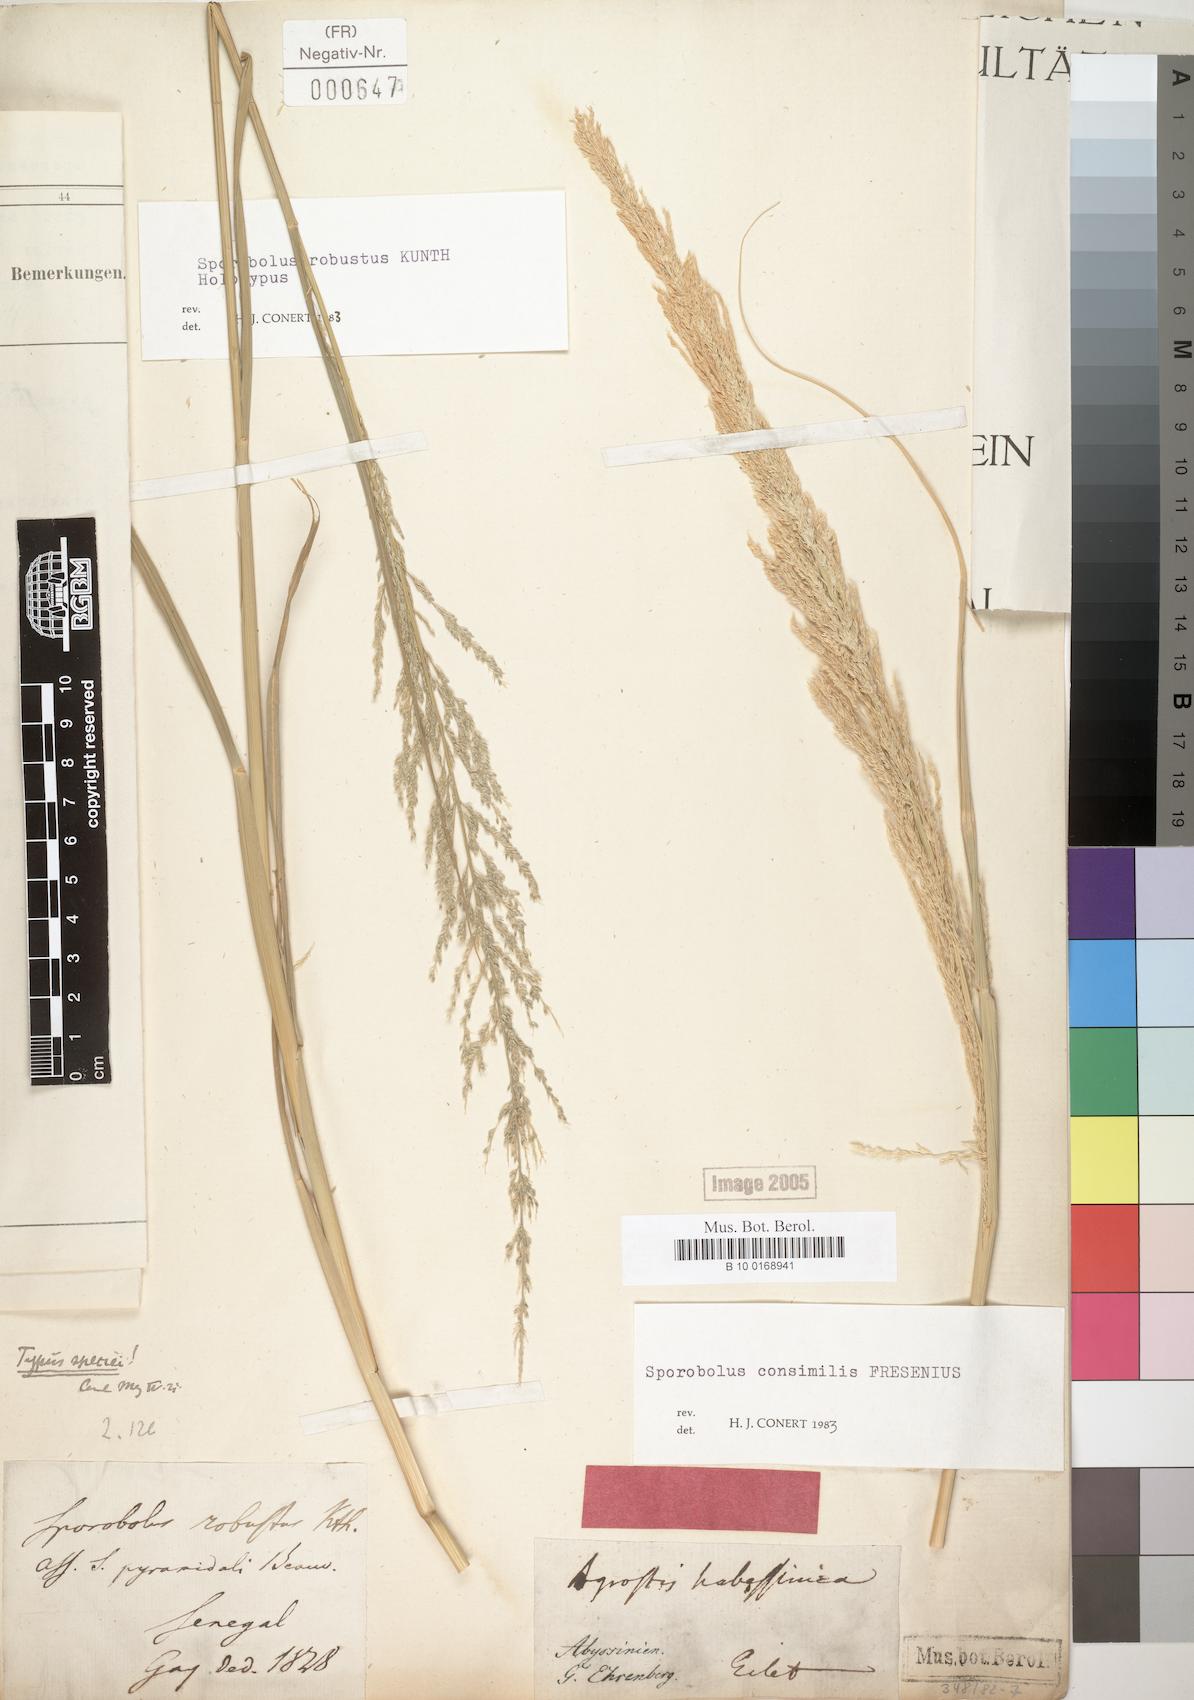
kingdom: Plantae
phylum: Tracheophyta
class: Liliopsida
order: Poales
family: Poaceae
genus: Sporobolus
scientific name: Sporobolus robustus
